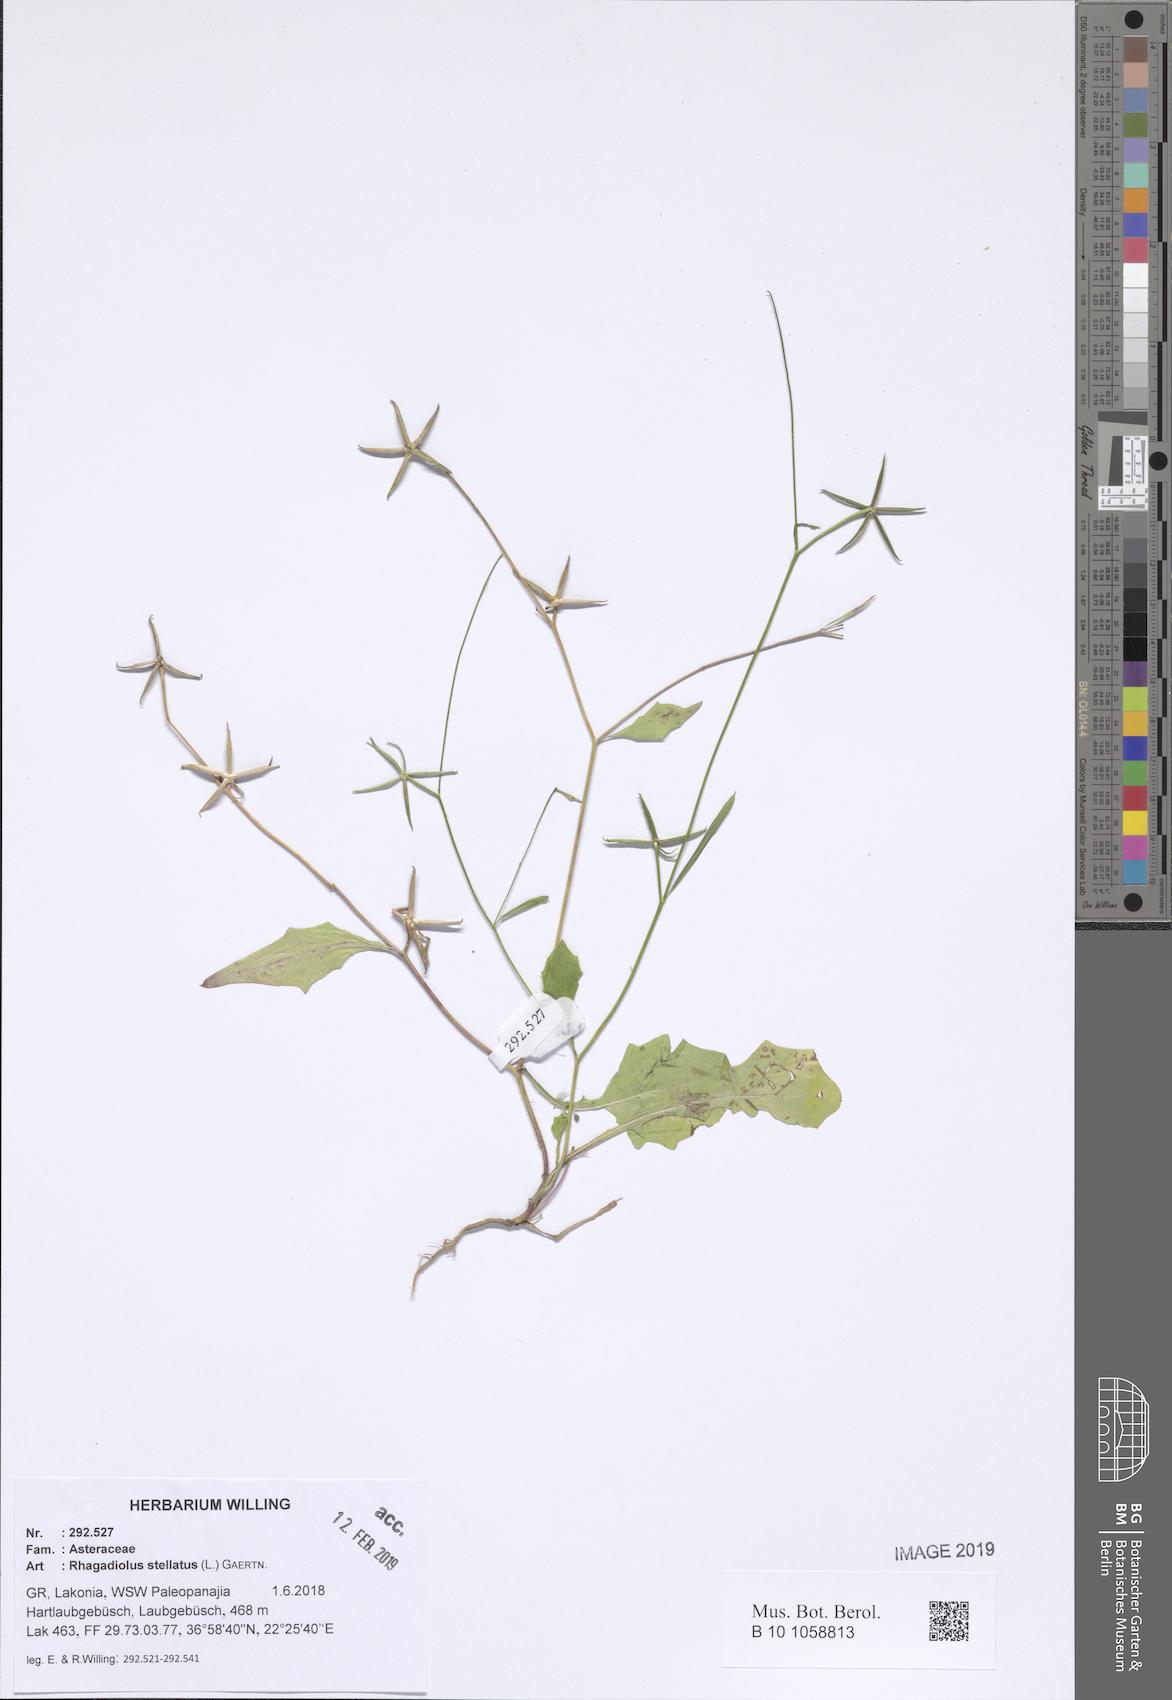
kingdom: Plantae
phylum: Tracheophyta
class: Magnoliopsida
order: Asterales
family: Asteraceae
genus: Rhagadiolus
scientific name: Rhagadiolus stellatus
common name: Star hawkbit
